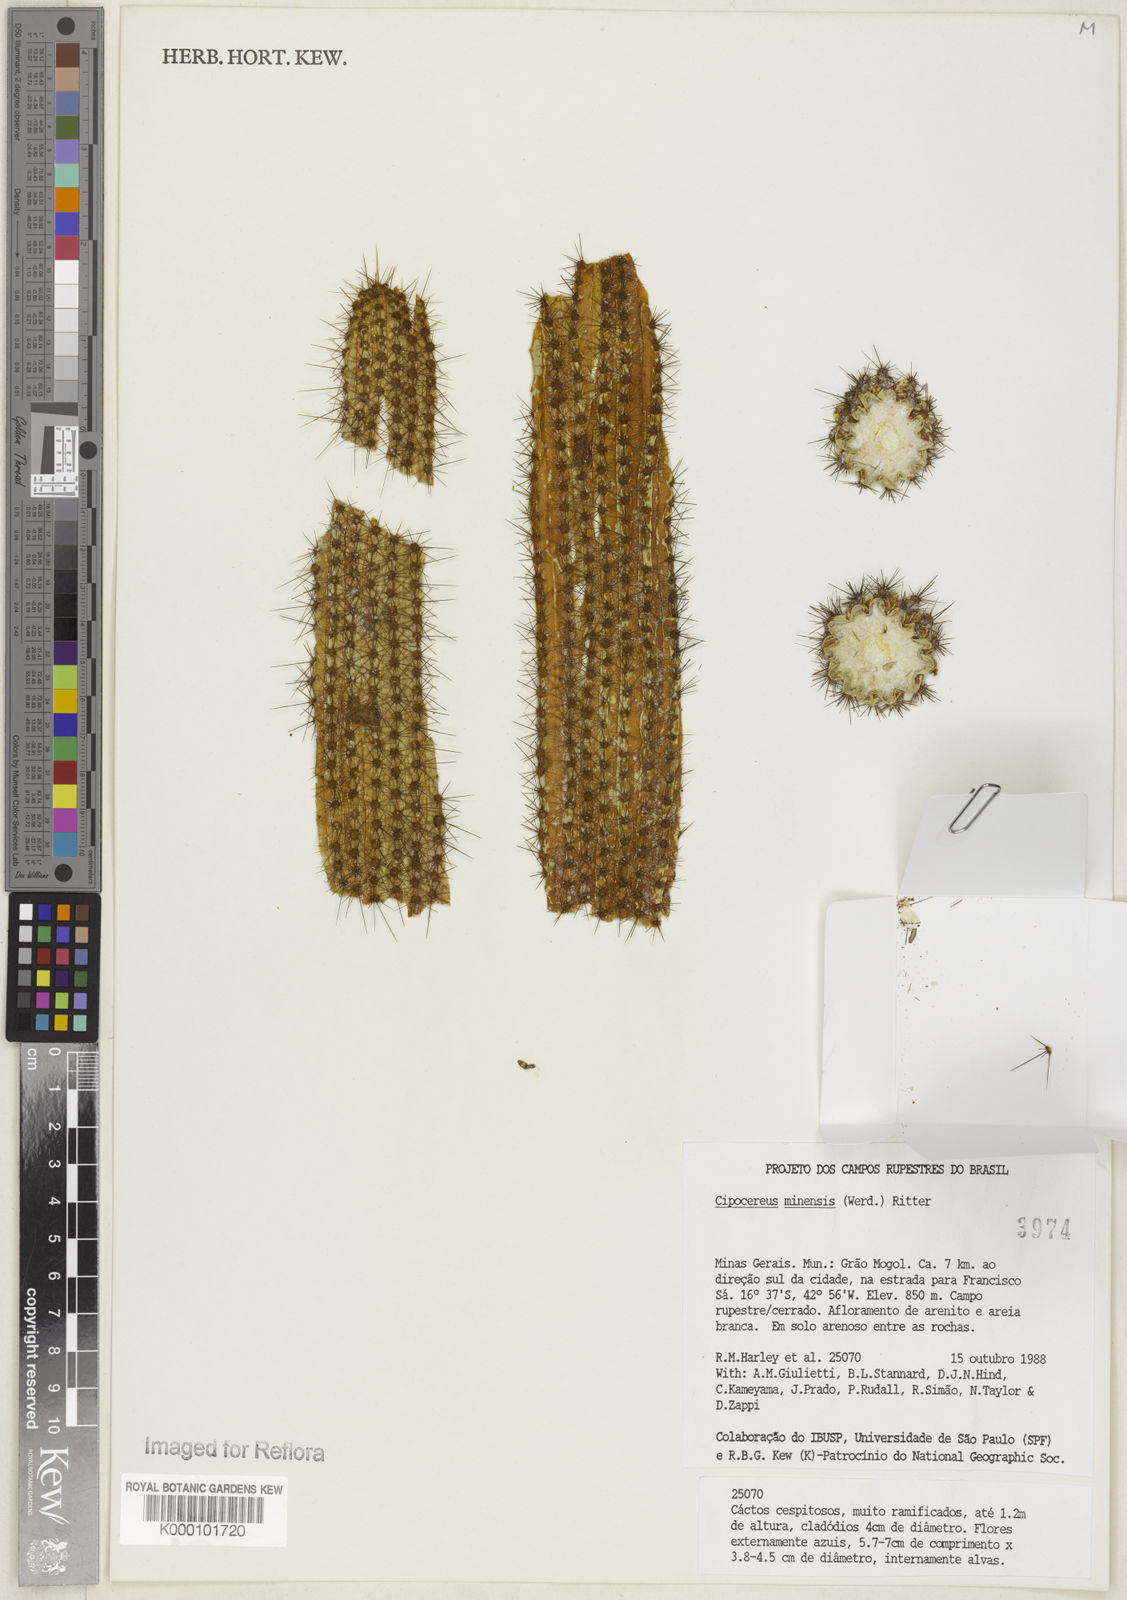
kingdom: Plantae
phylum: Tracheophyta
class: Magnoliopsida
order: Caryophyllales
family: Cactaceae
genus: Cipocereus
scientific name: Cipocereus minensis
